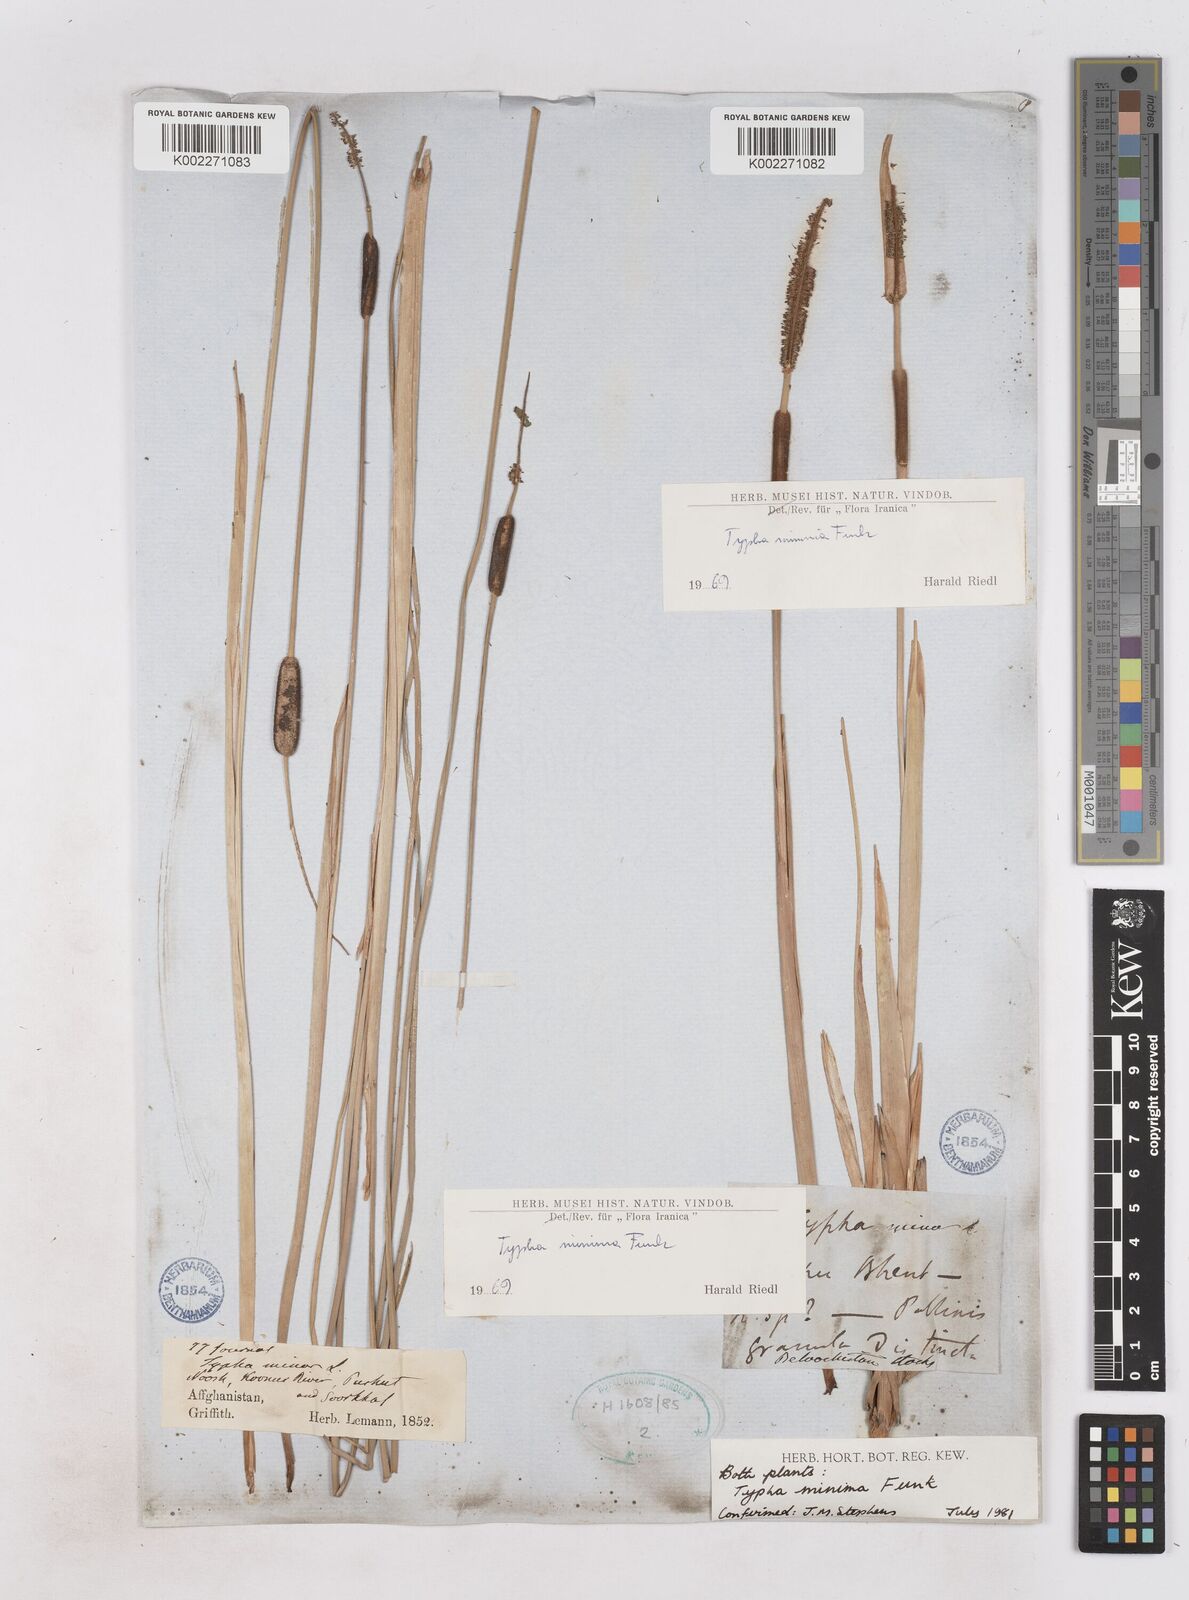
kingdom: Plantae
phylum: Tracheophyta
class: Liliopsida
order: Poales
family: Typhaceae
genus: Typha
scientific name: Typha minima
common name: Dwarf bulrush
